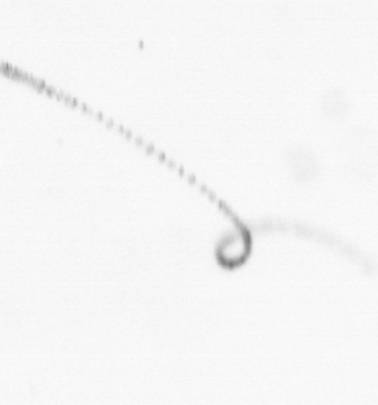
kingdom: Chromista
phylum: Ochrophyta
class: Bacillariophyceae
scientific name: Bacillariophyceae
